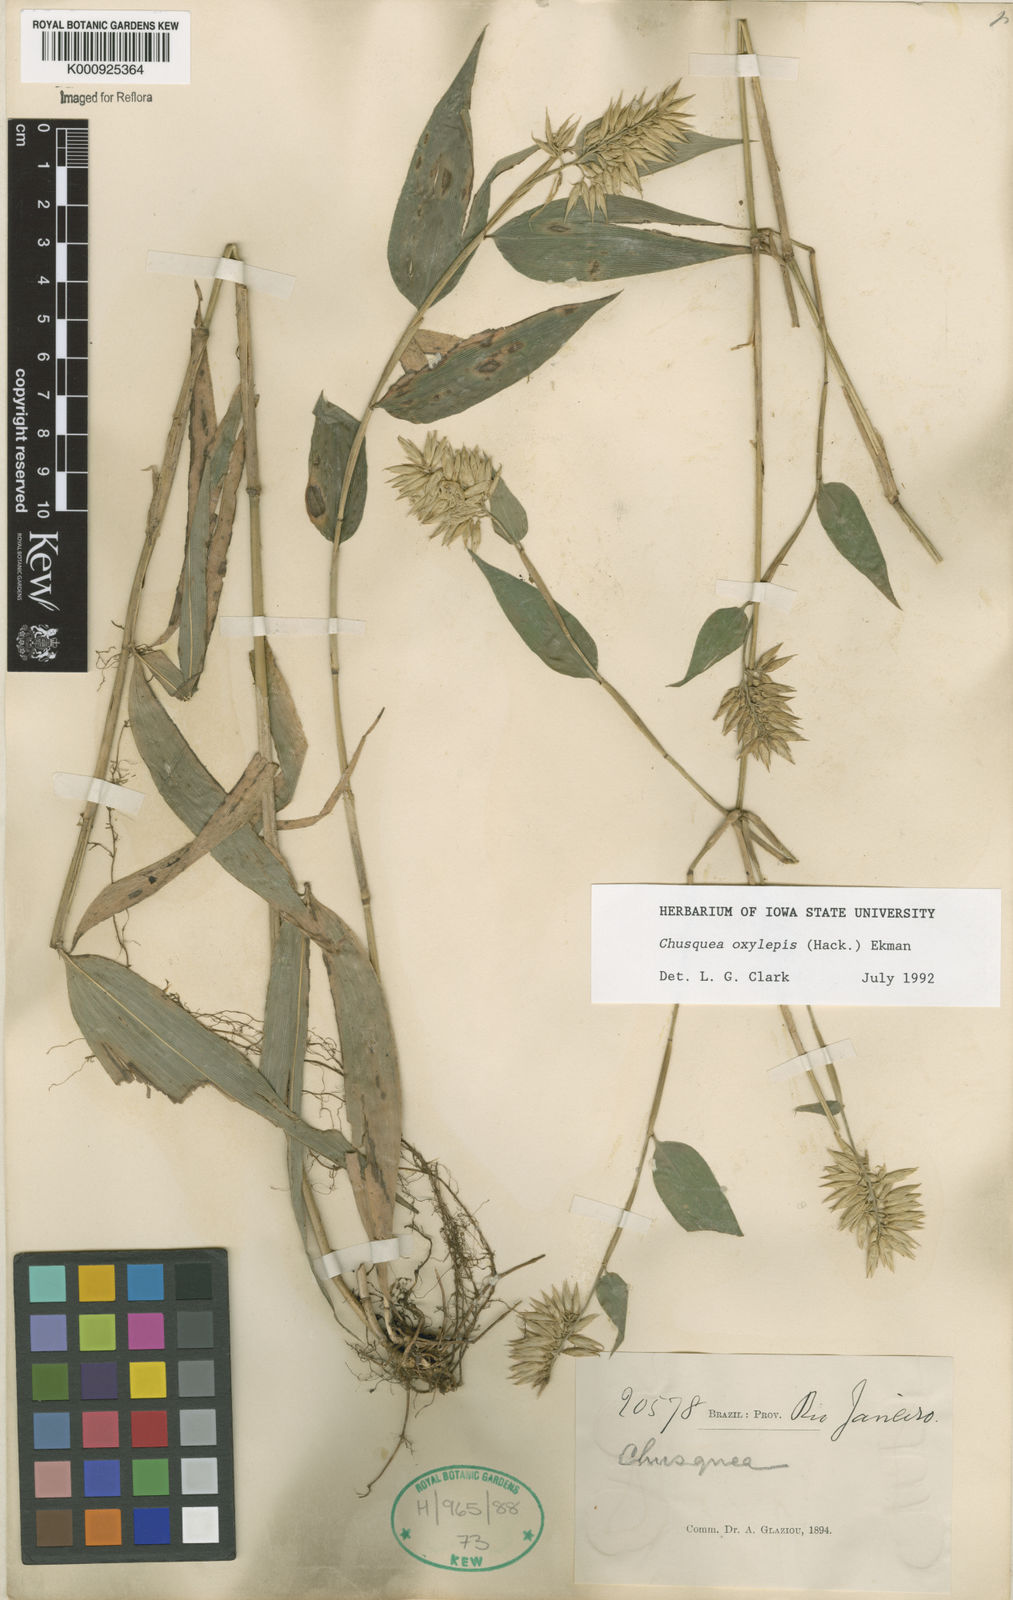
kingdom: Plantae
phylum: Tracheophyta
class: Liliopsida
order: Poales
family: Poaceae
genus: Chusquea
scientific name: Chusquea oxylepis
